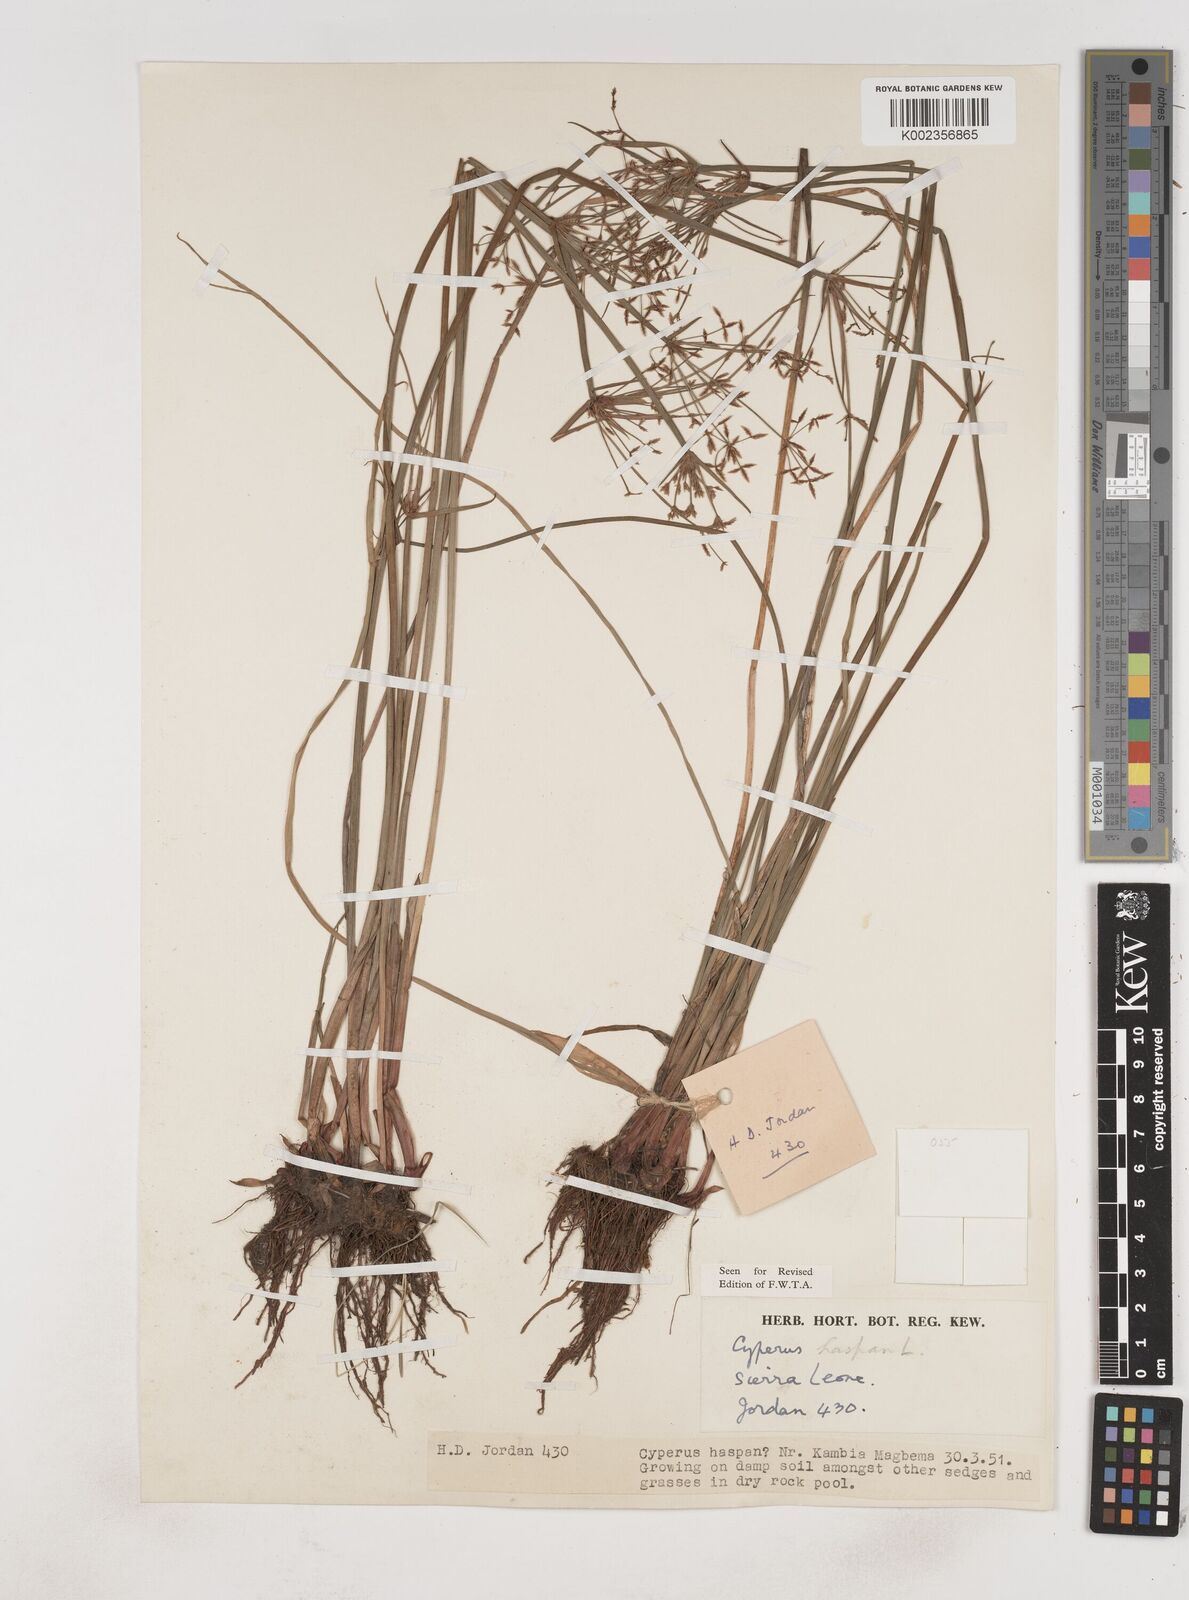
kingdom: Plantae
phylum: Tracheophyta
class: Liliopsida
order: Poales
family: Cyperaceae
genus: Cyperus
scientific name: Cyperus haspan
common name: Haspan flatsedge
